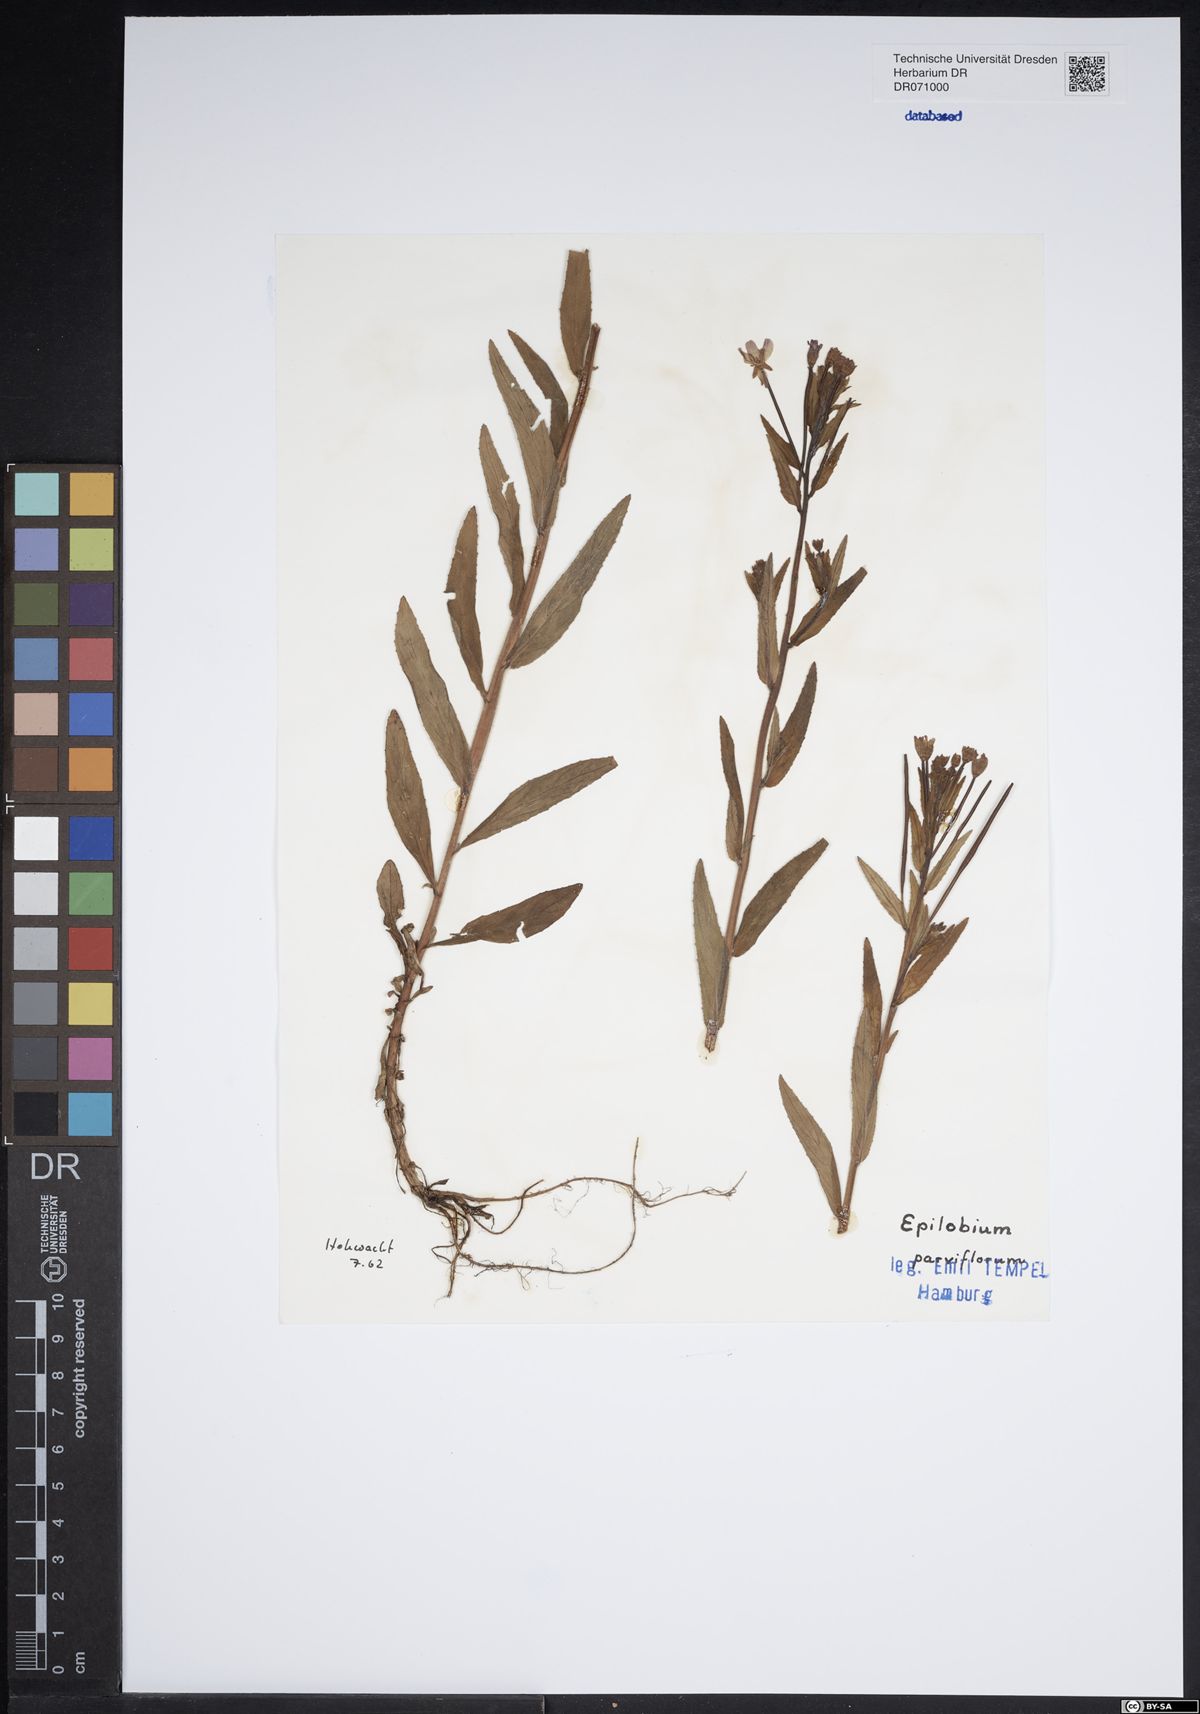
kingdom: Plantae
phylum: Tracheophyta
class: Magnoliopsida
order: Myrtales
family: Onagraceae
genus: Epilobium
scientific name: Epilobium parviflorum
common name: Hoary willowherb
